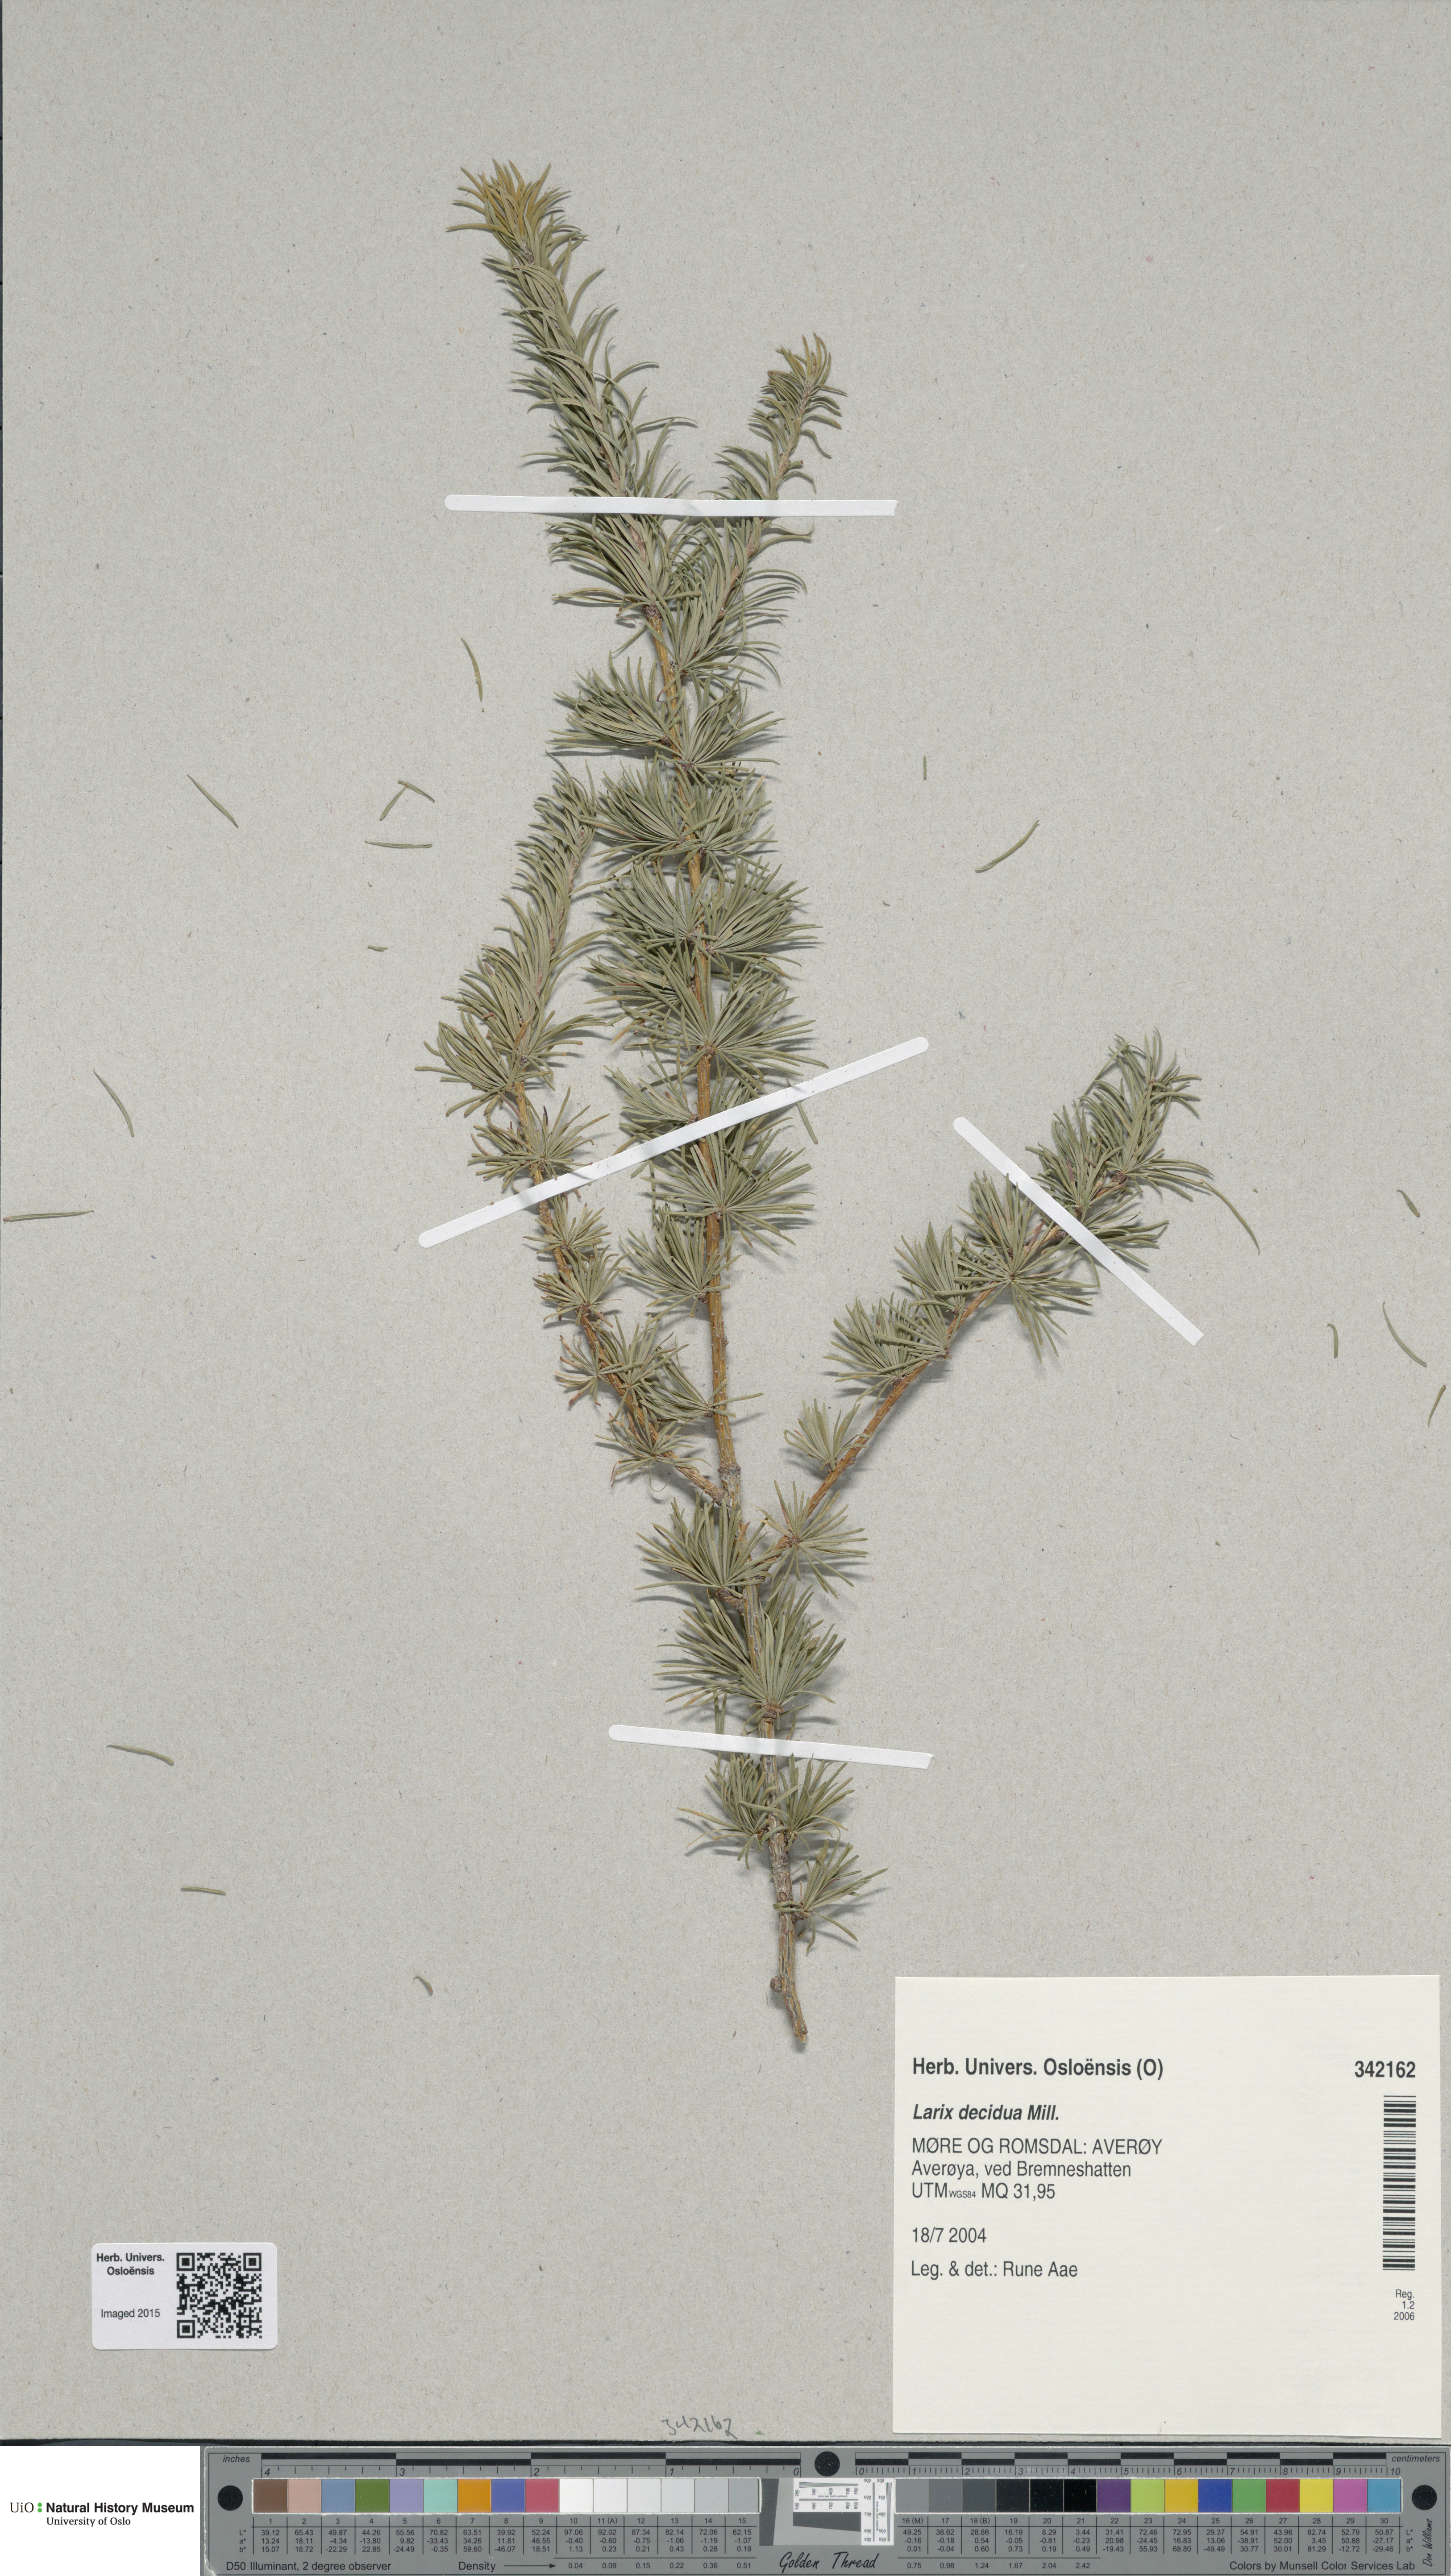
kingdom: Plantae
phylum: Tracheophyta
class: Pinopsida
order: Pinales
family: Pinaceae
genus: Larix
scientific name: Larix decidua
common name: European larch
